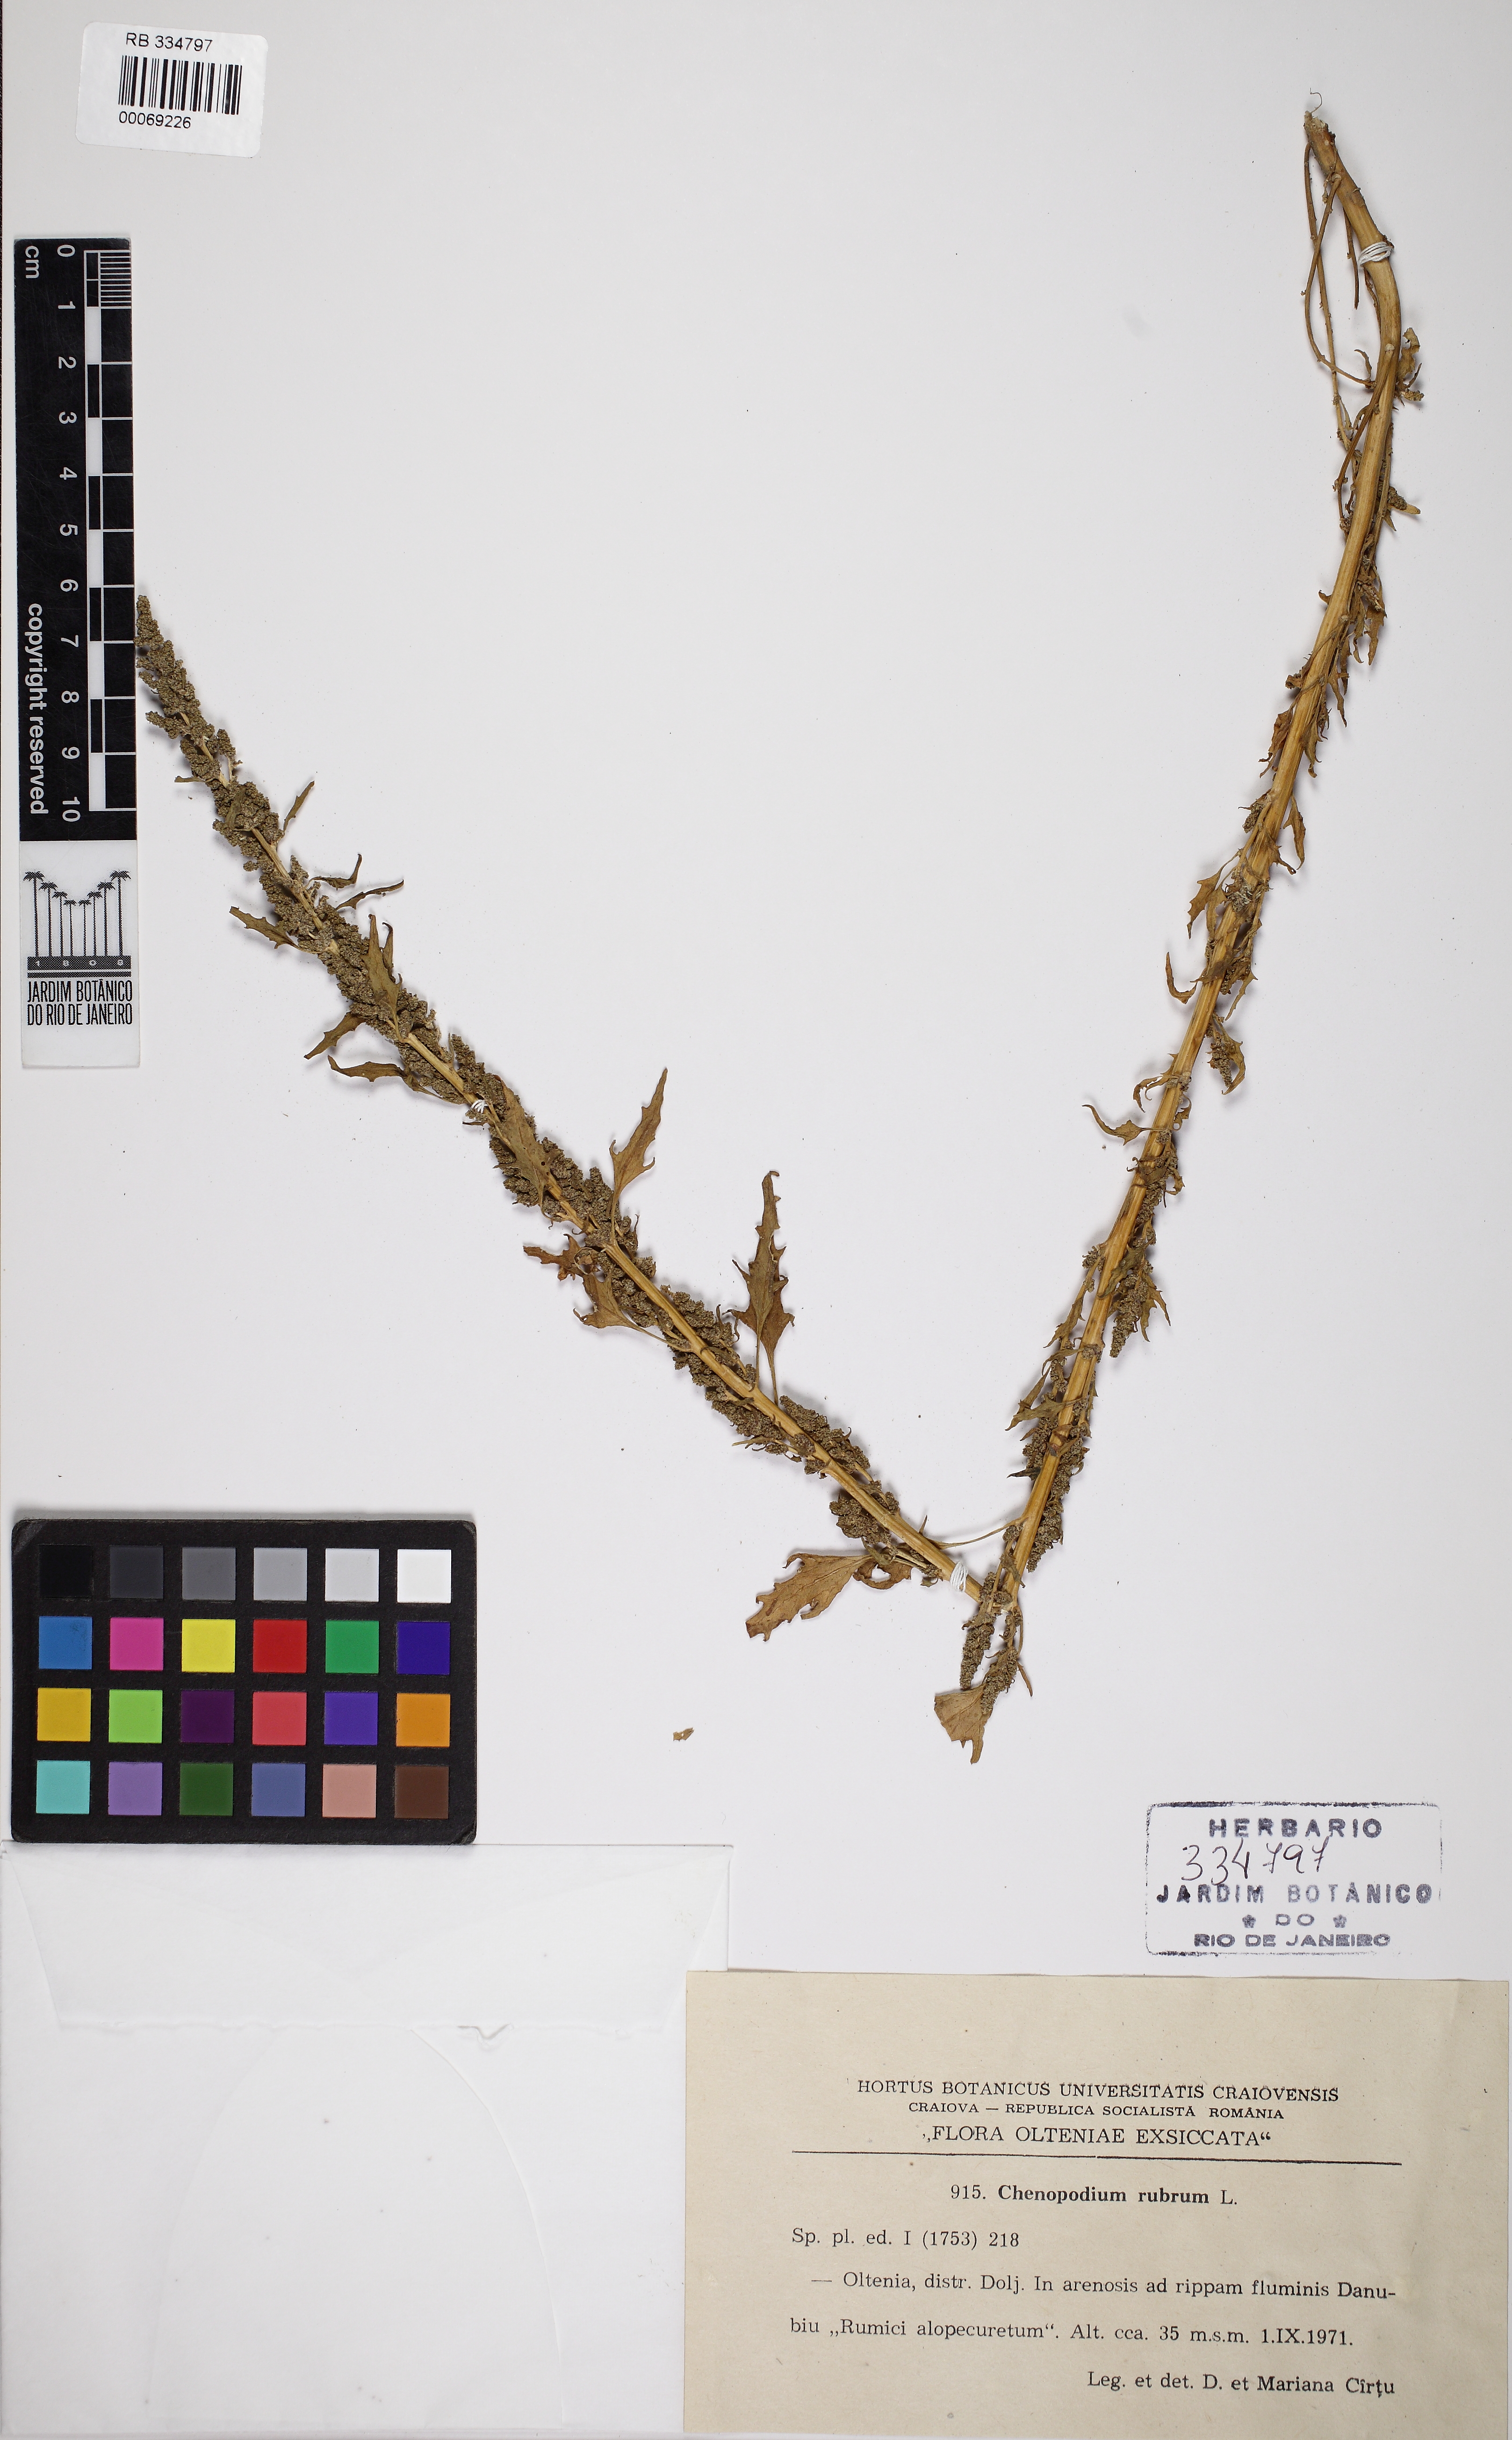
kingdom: Plantae
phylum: Tracheophyta
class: Magnoliopsida
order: Caryophyllales
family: Amaranthaceae
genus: Oxybasis
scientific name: Oxybasis rubra
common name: Red goosefoot
